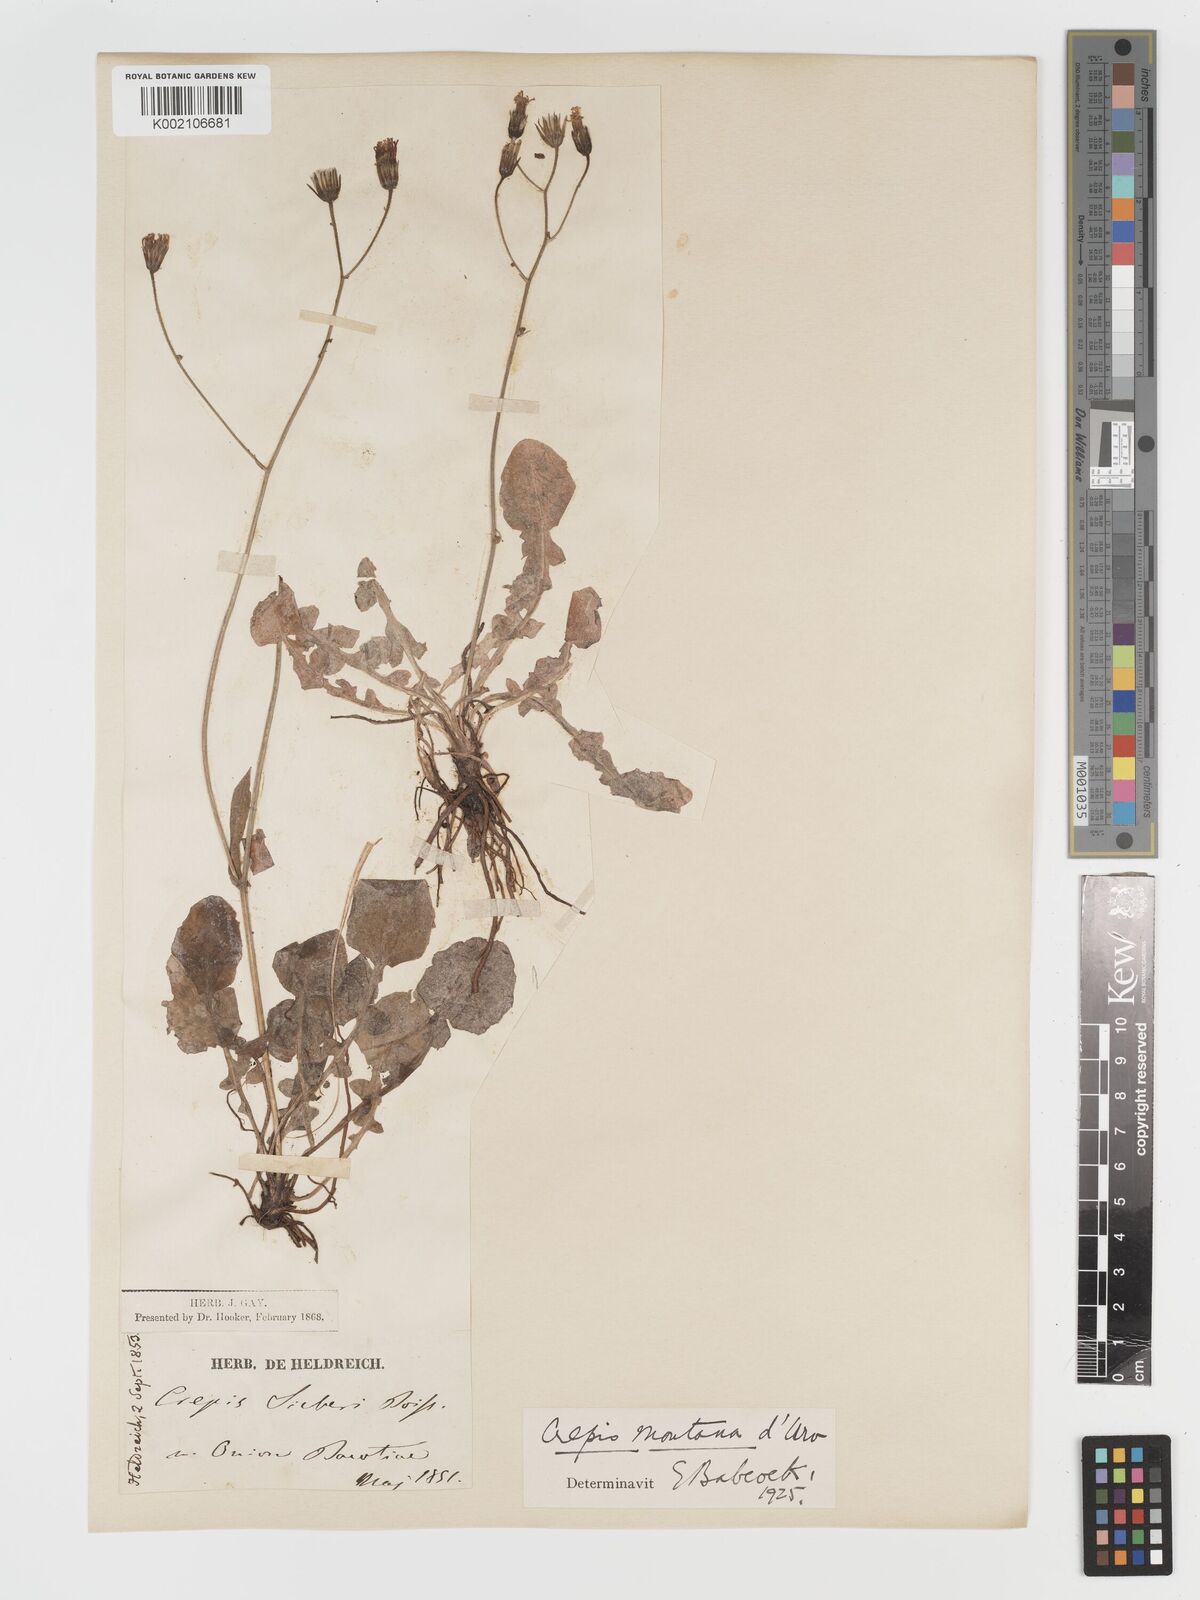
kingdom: Plantae
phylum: Tracheophyta
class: Magnoliopsida
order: Asterales
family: Asteraceae
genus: Crepis
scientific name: Crepis
